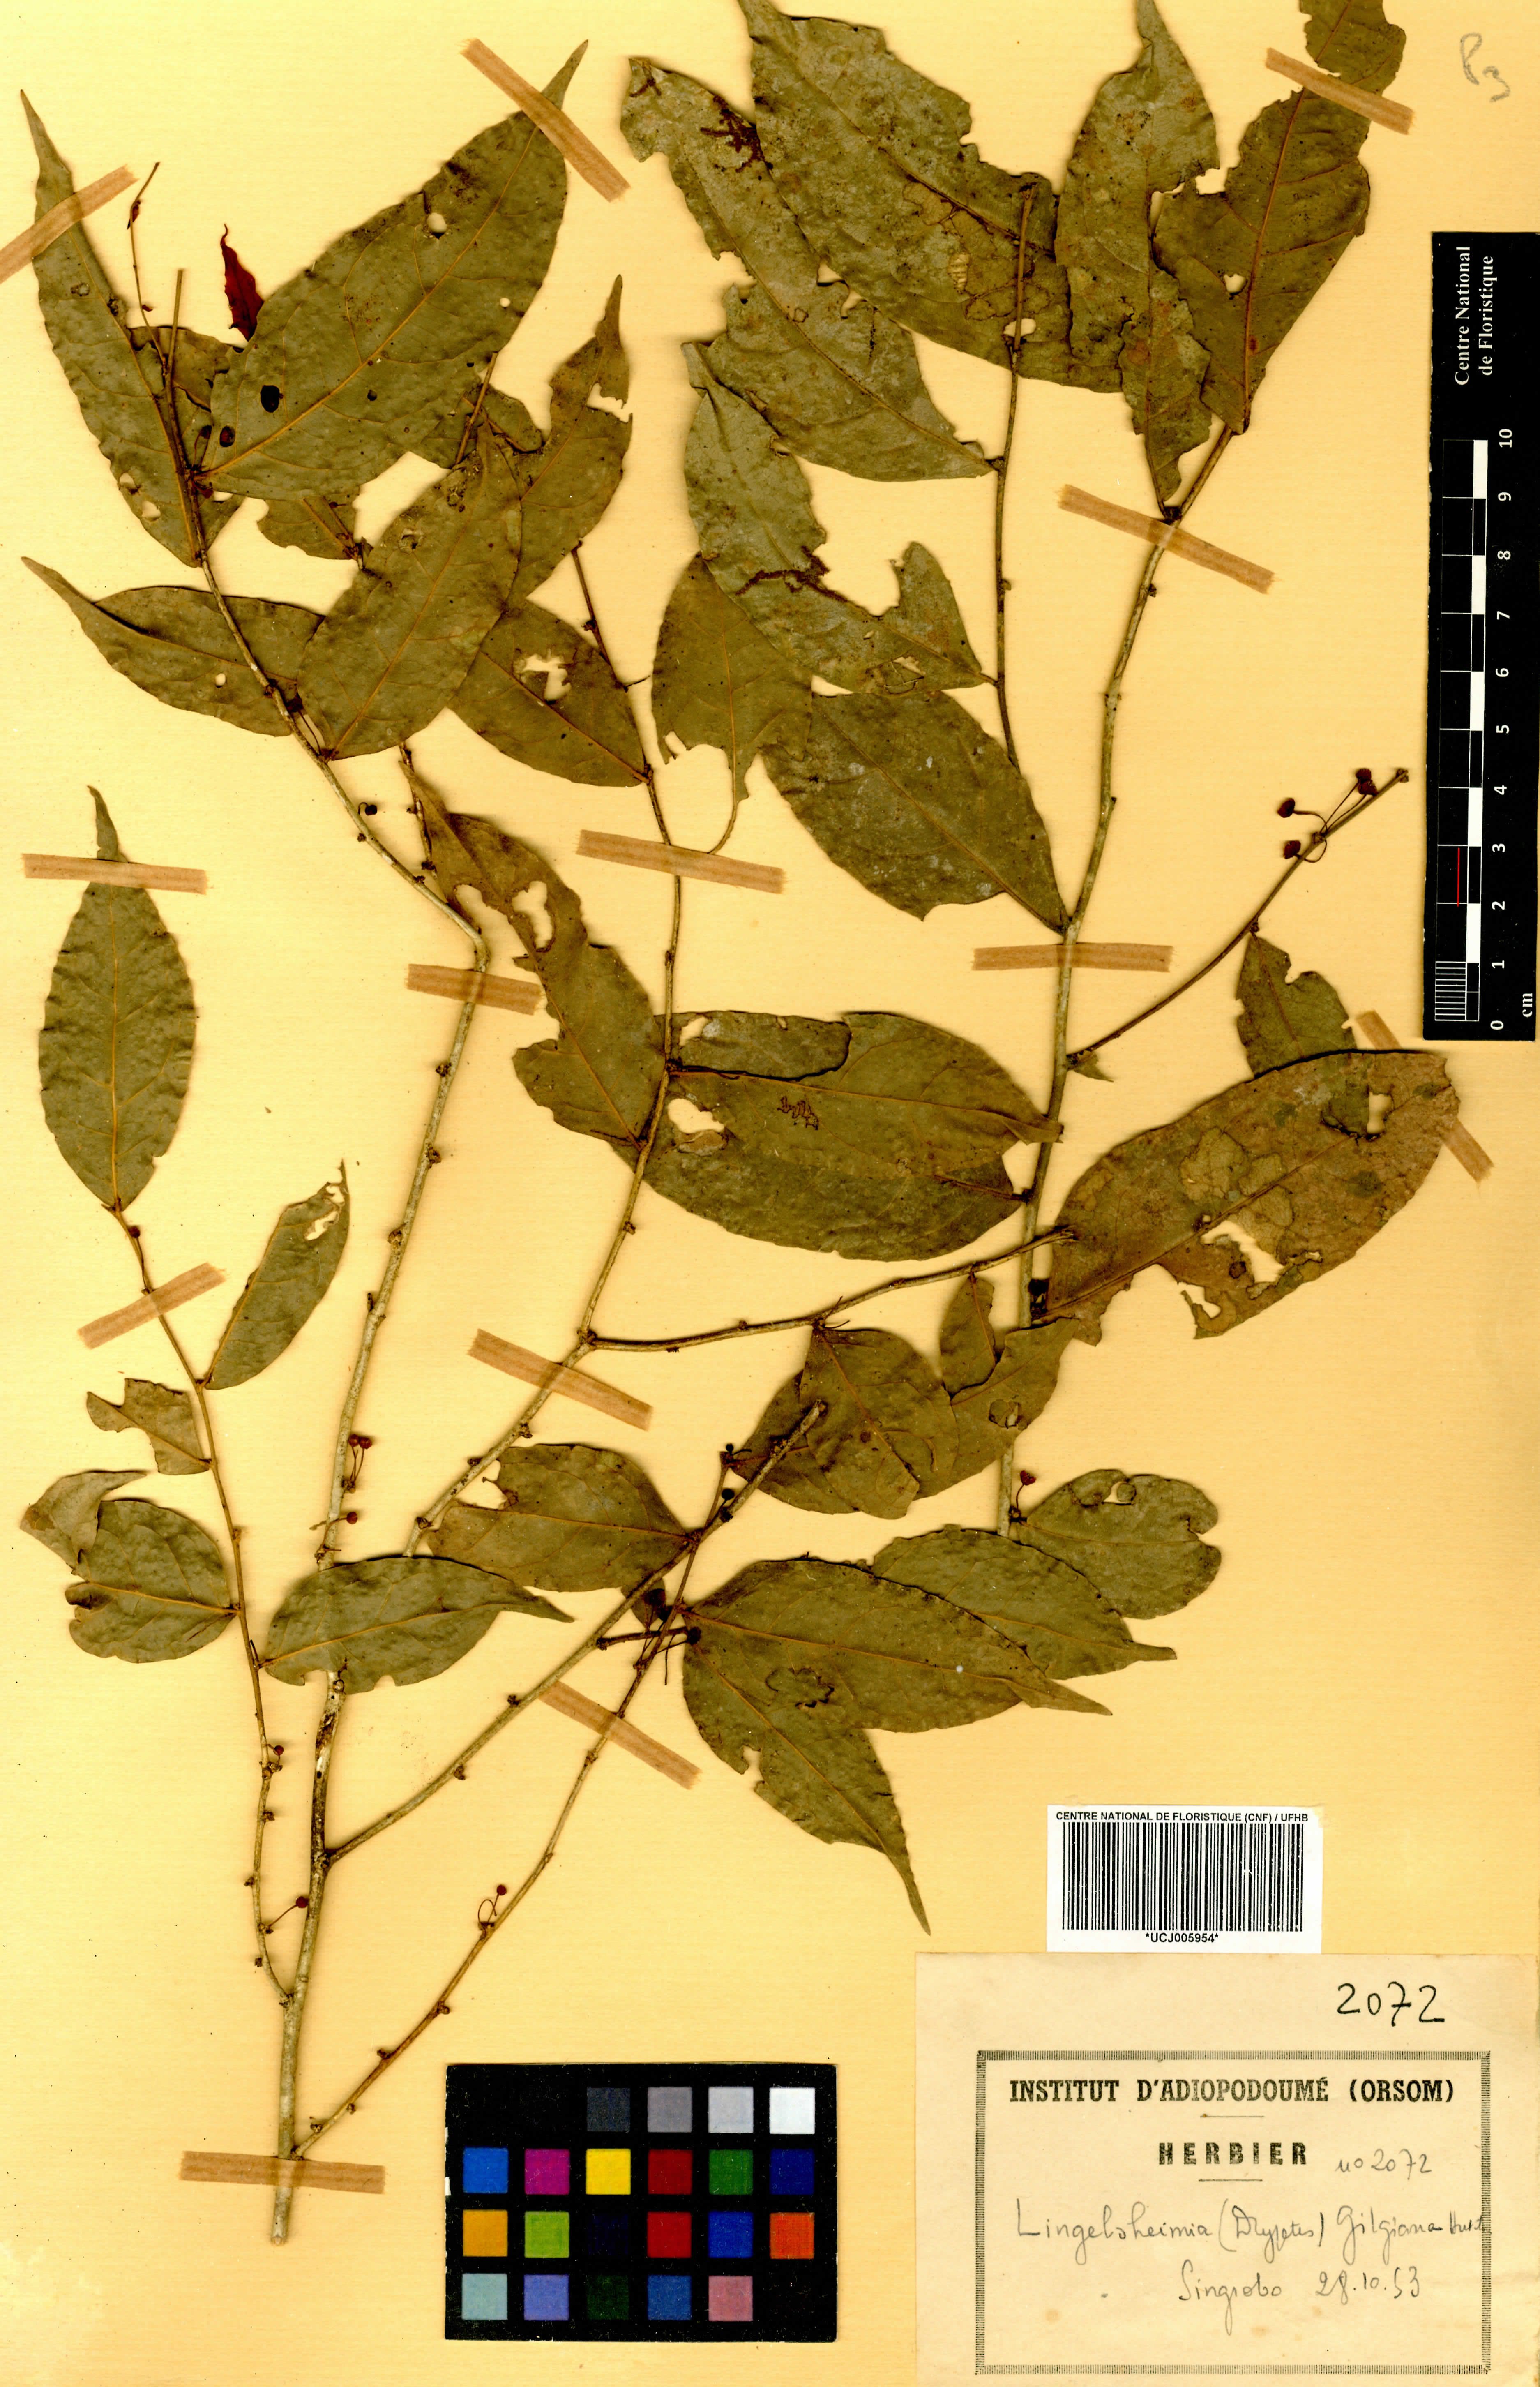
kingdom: Plantae
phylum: Tracheophyta
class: Magnoliopsida
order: Malpighiales
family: Euphorbiaceae
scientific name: Euphorbiaceae
